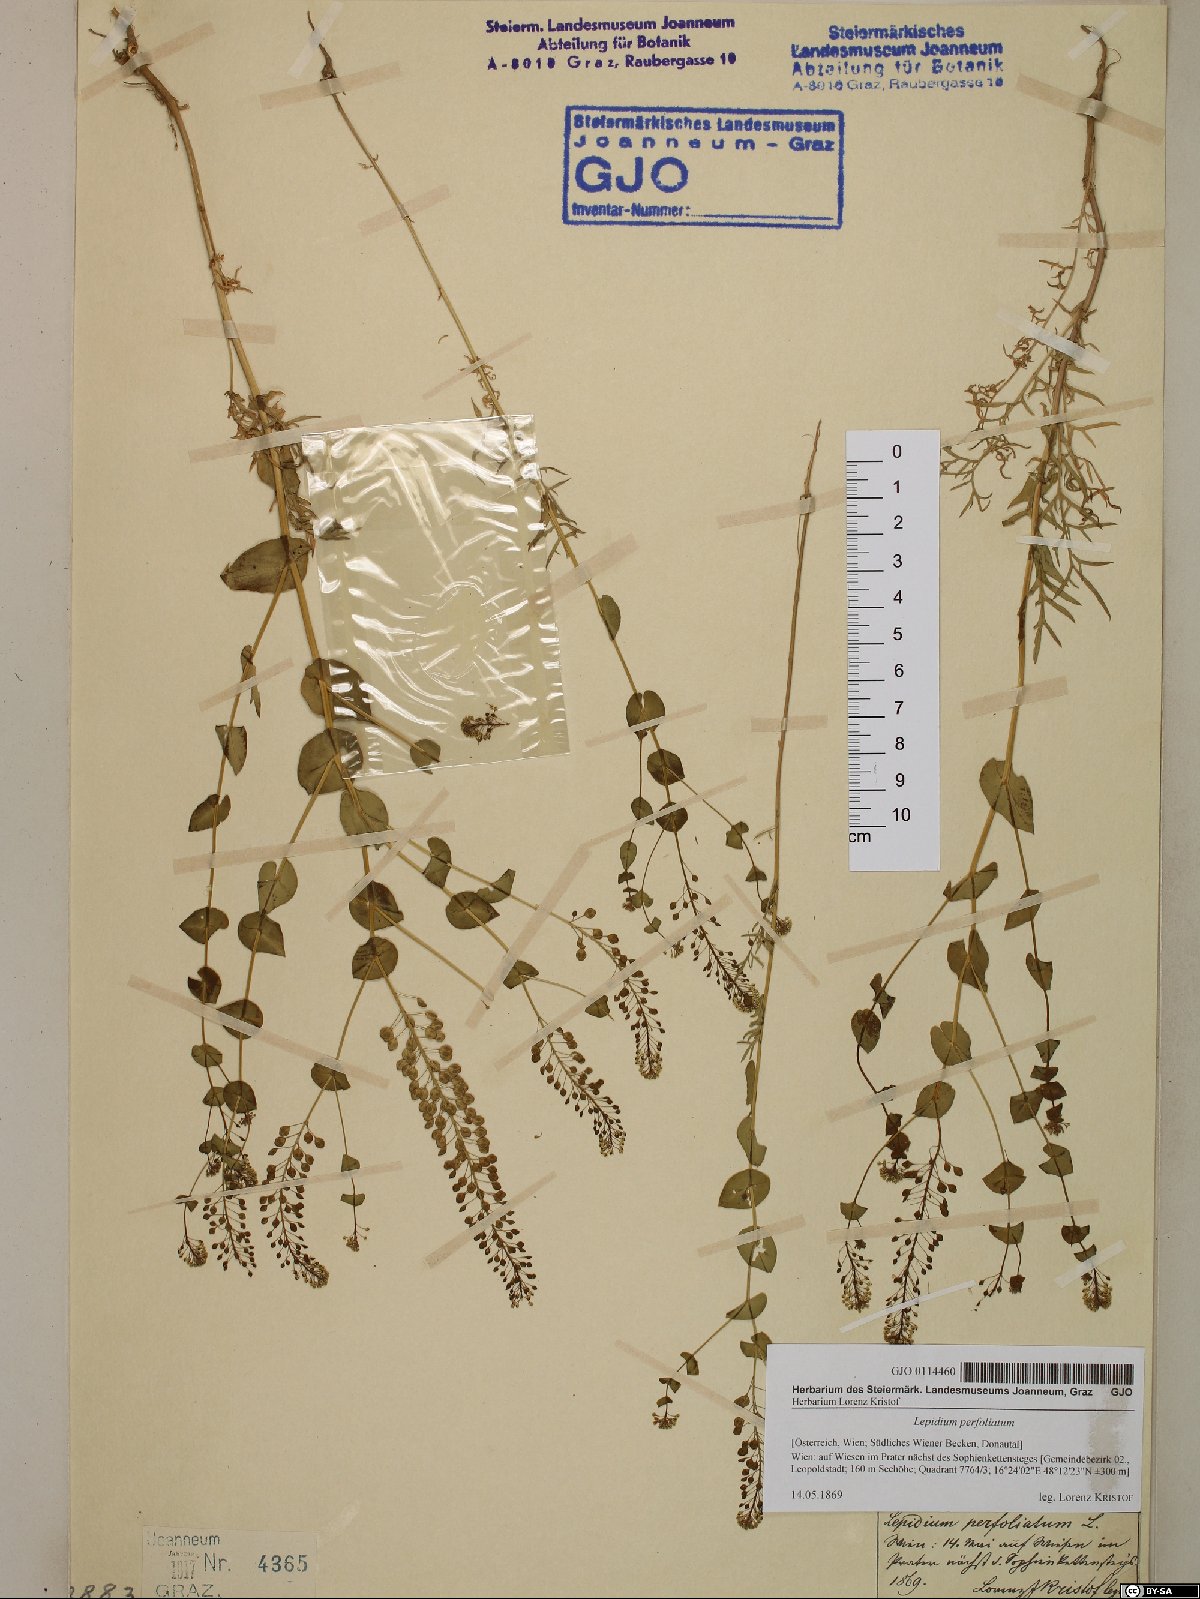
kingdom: Plantae
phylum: Tracheophyta
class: Magnoliopsida
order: Brassicales
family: Brassicaceae
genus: Lepidium
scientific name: Lepidium perfoliatum
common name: Perfoliate pepperwort
